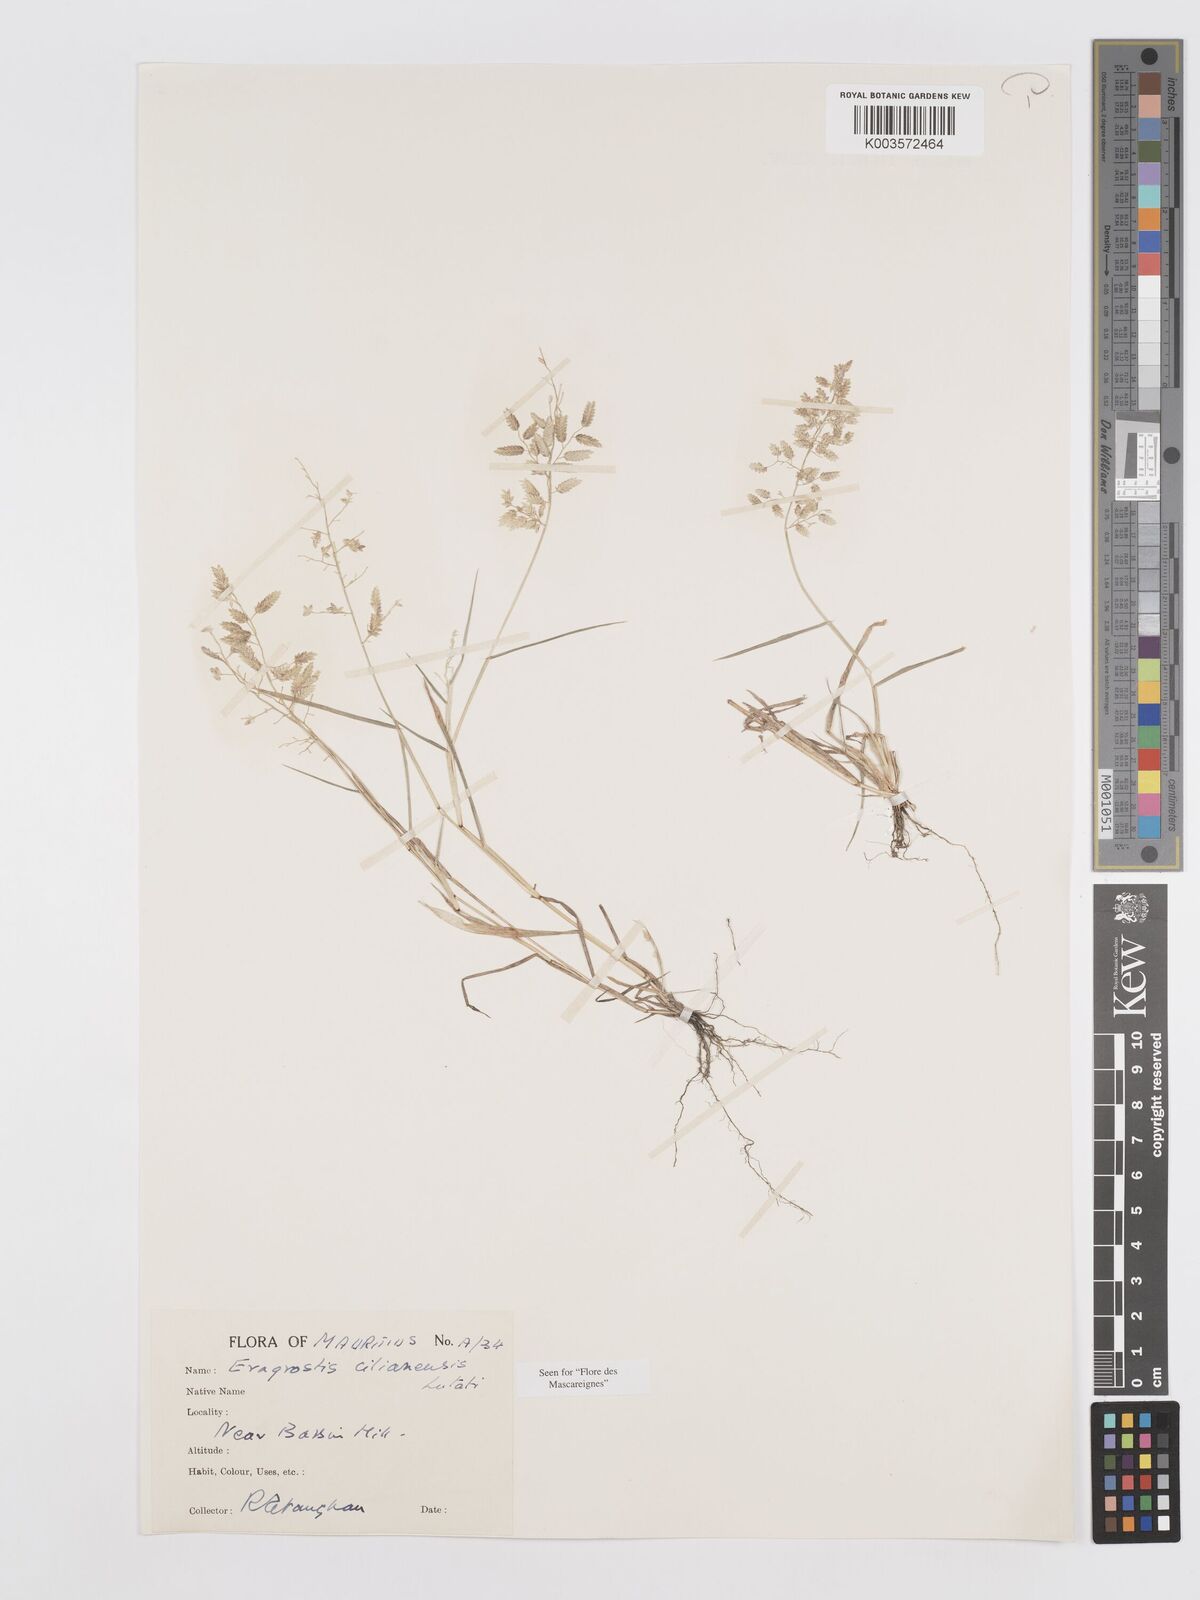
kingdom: Plantae
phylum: Tracheophyta
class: Liliopsida
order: Poales
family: Poaceae
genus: Eragrostis
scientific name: Eragrostis cilianensis
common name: Stinkgrass
